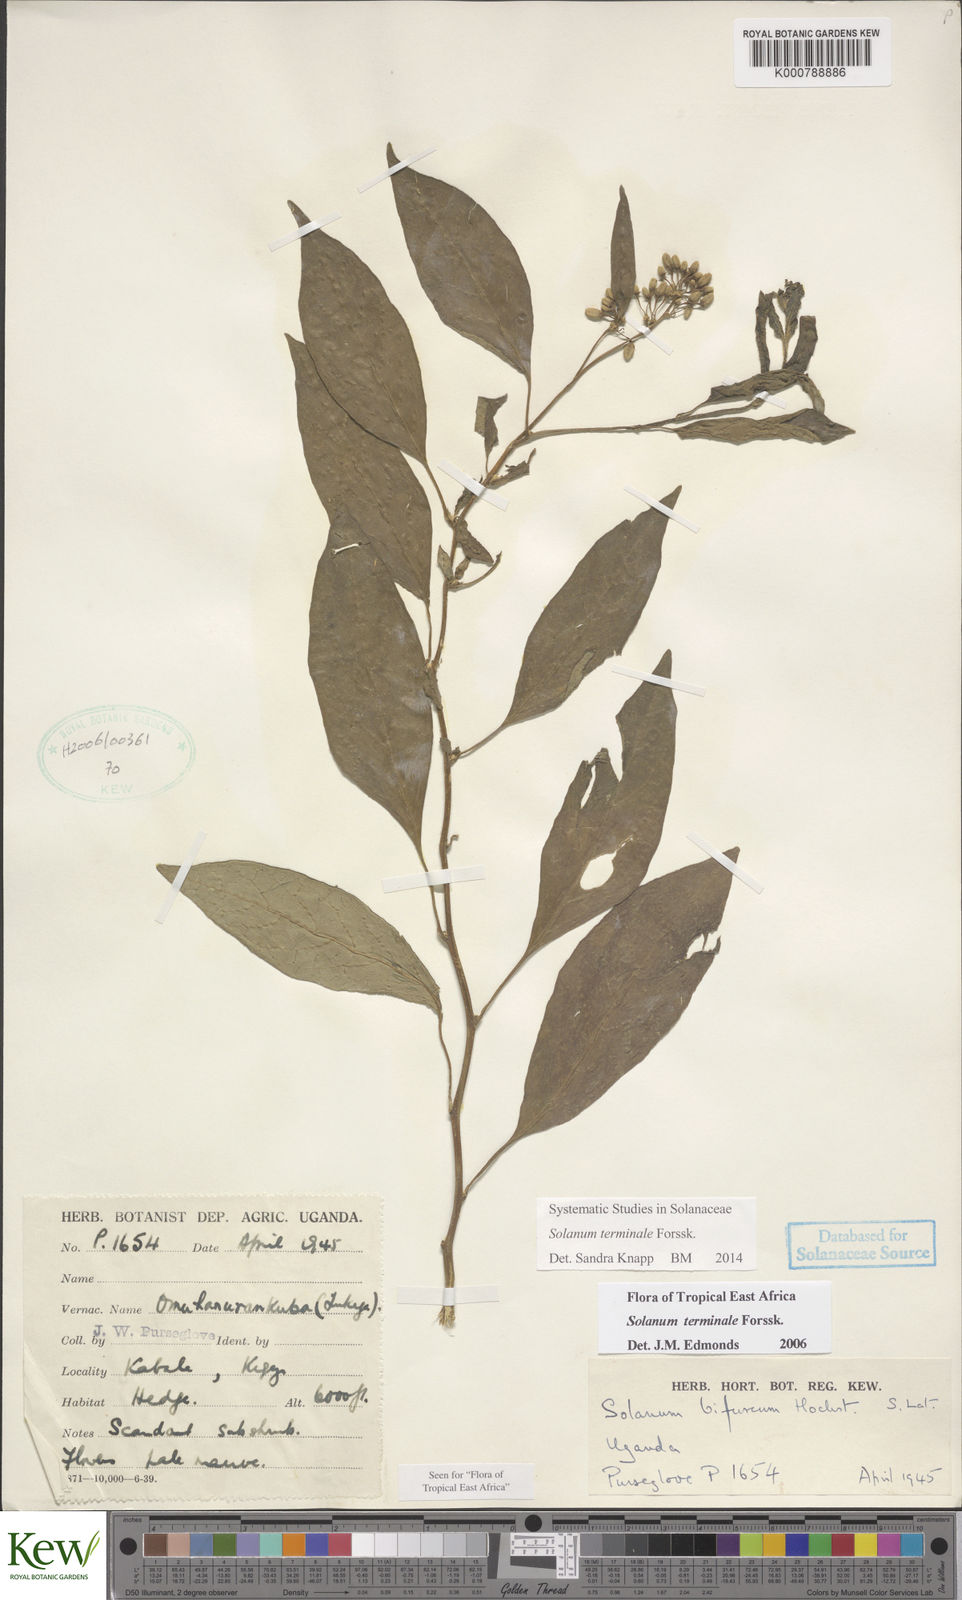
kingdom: Plantae
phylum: Tracheophyta
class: Magnoliopsida
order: Solanales
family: Solanaceae
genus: Solanum
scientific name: Solanum terminale
